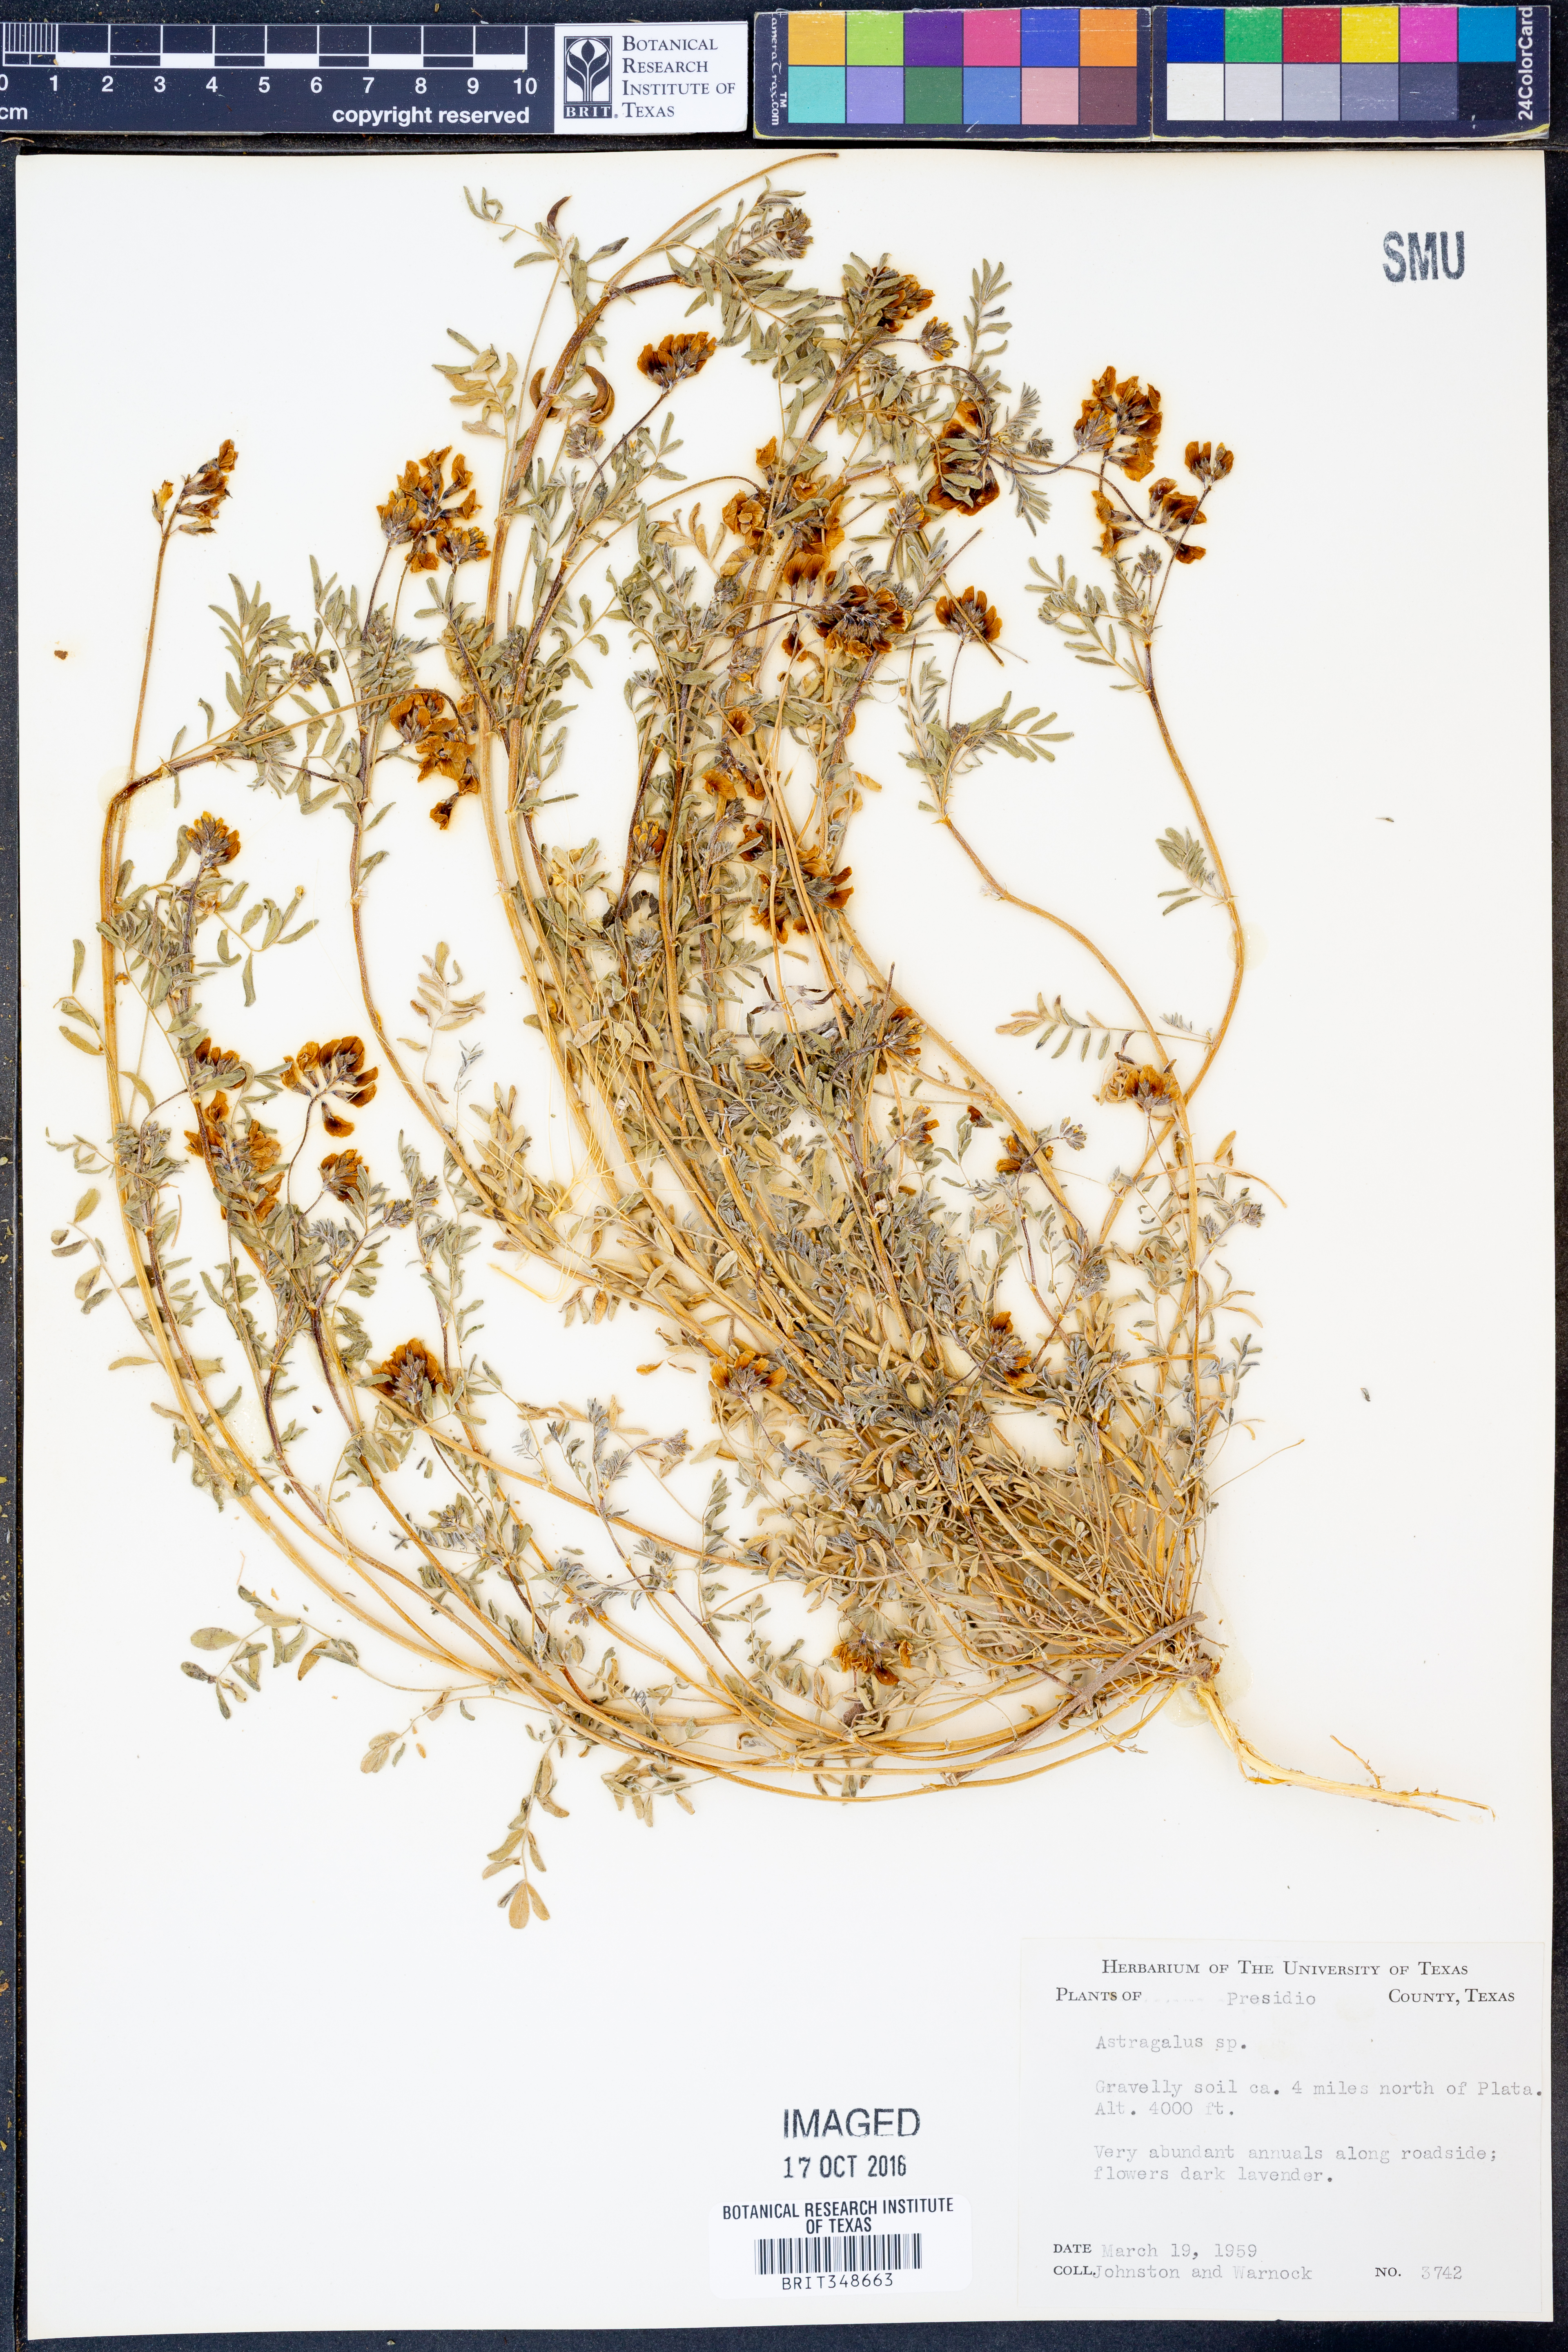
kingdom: Plantae
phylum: Tracheophyta
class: Magnoliopsida
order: Fabales
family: Fabaceae
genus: Astragalus
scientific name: Astragalus
